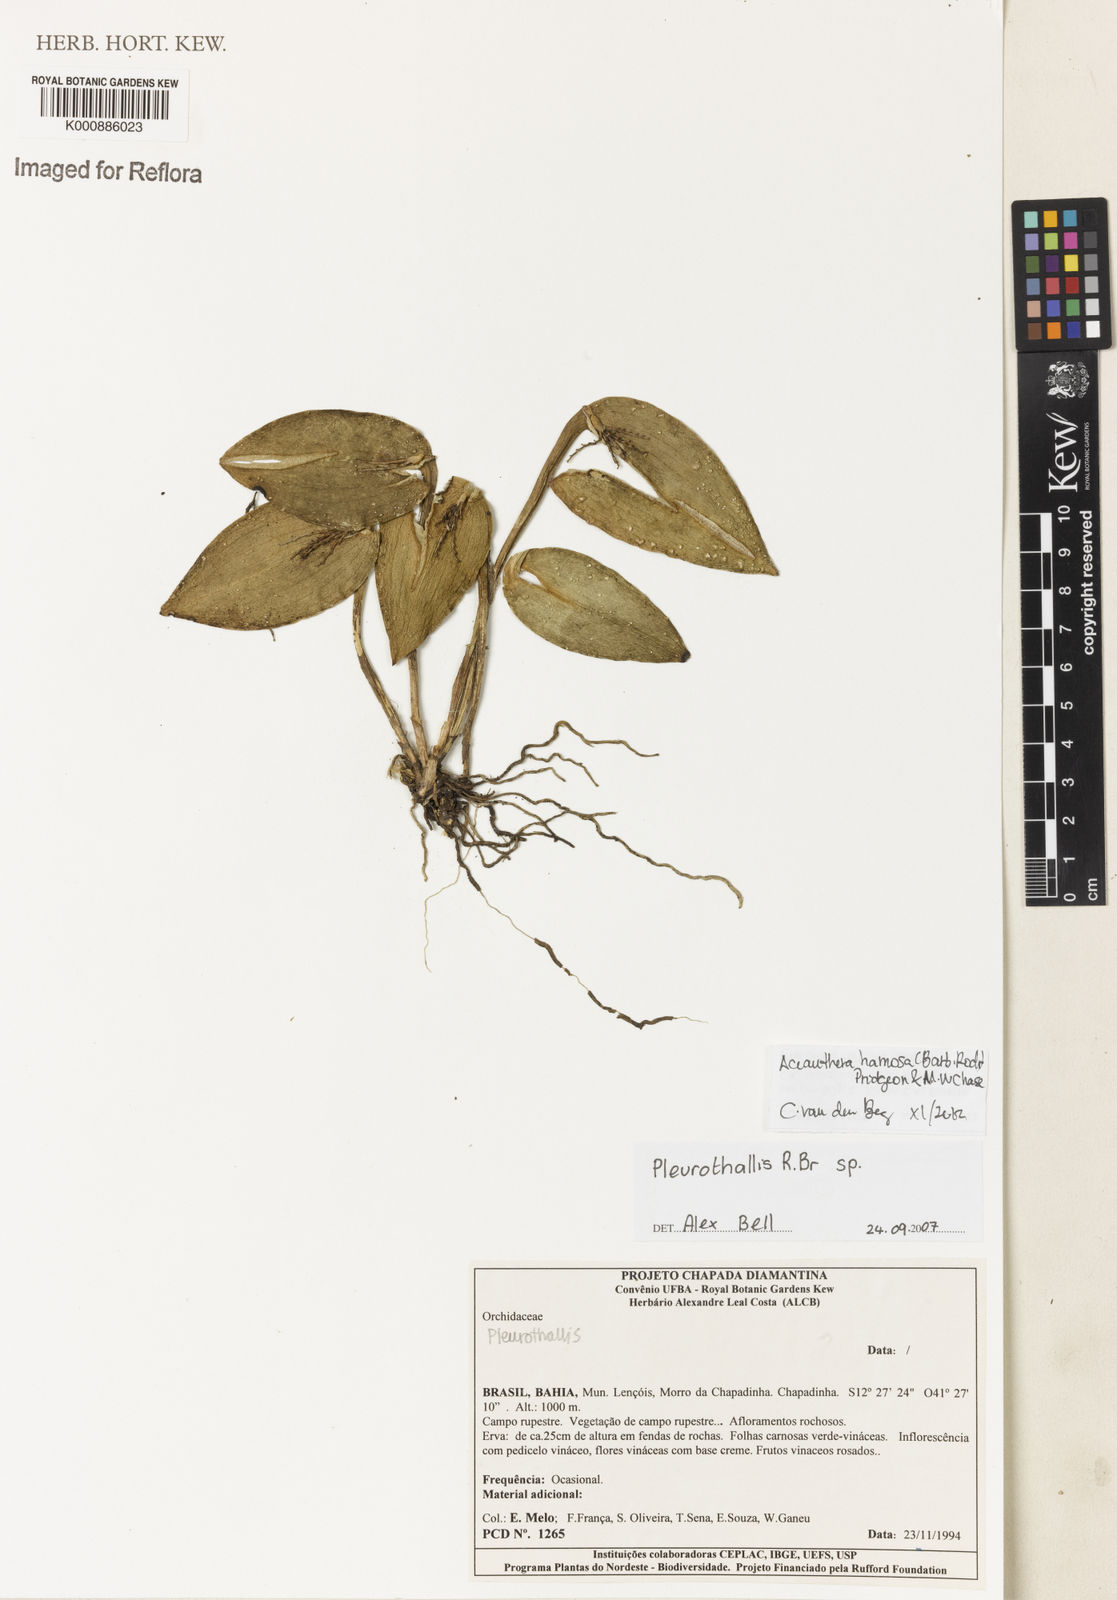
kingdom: Plantae
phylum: Tracheophyta
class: Liliopsida
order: Asparagales
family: Orchidaceae
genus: Acianthera
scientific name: Acianthera prolifera
